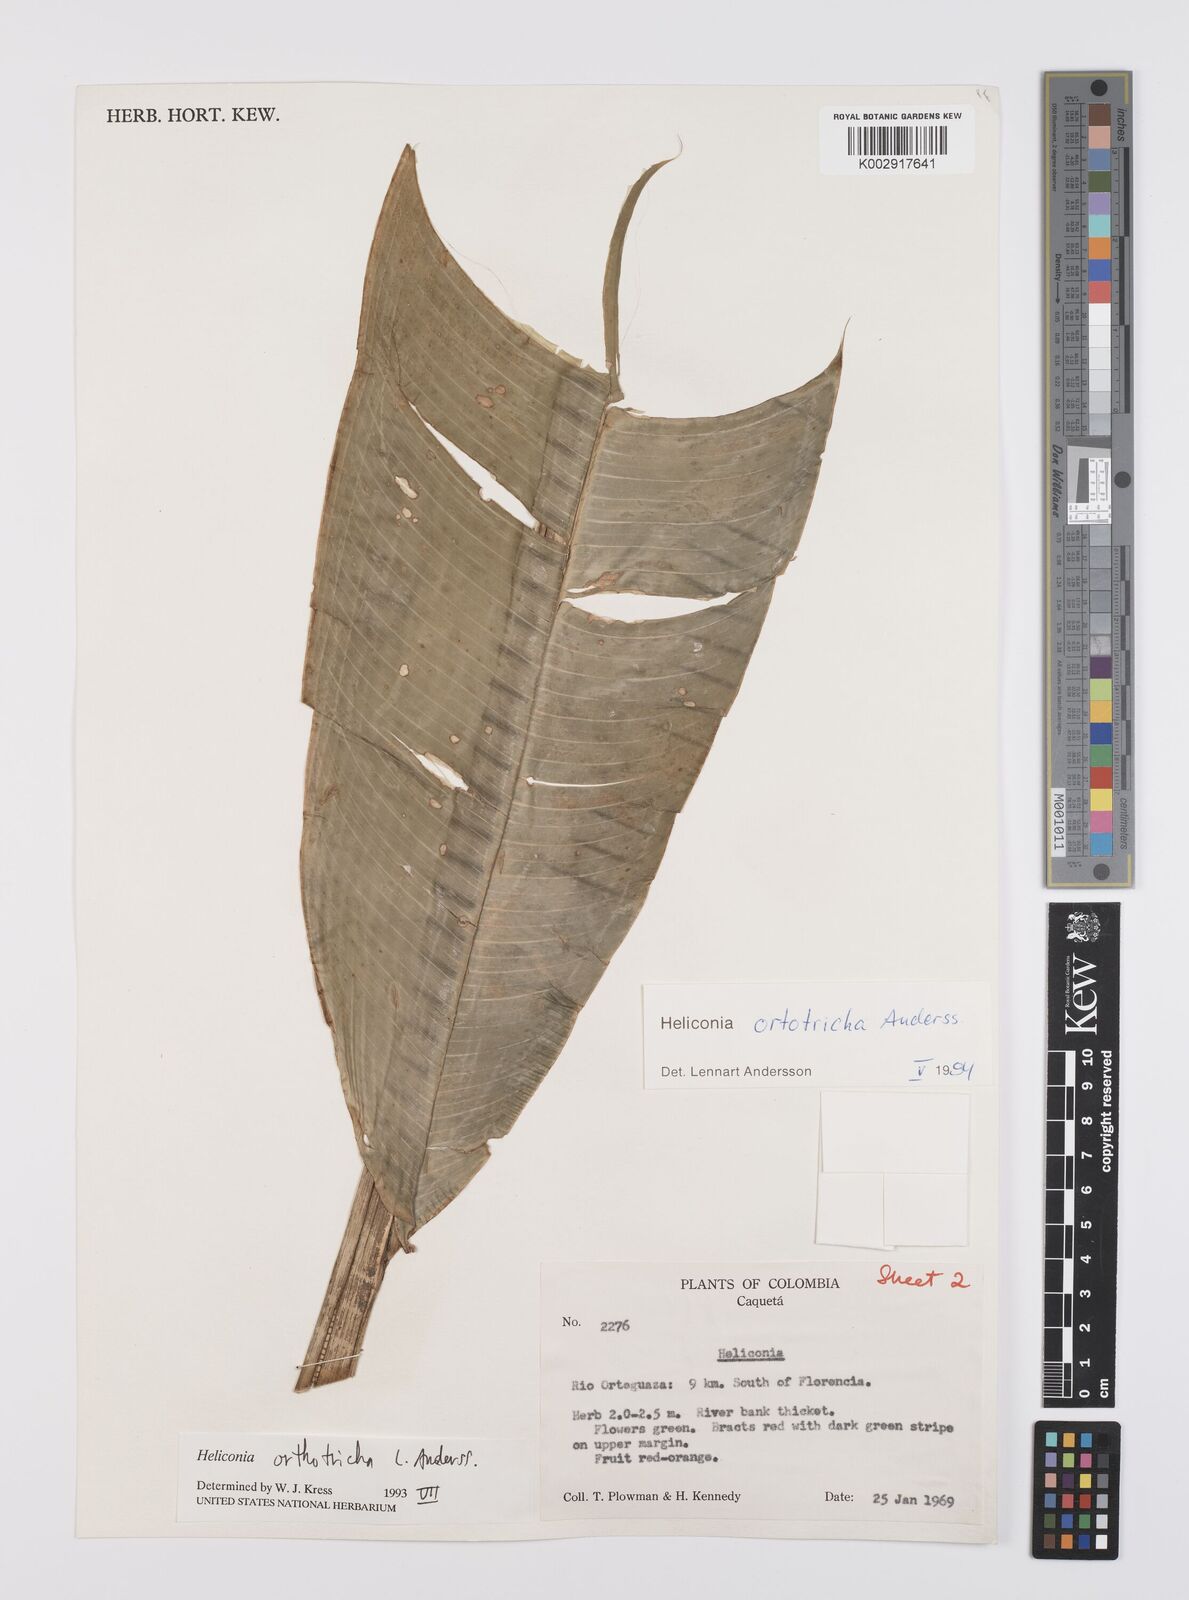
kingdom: Plantae
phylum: Tracheophyta
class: Liliopsida
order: Zingiberales
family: Heliconiaceae
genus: Heliconia
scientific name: Heliconia orthotricha
